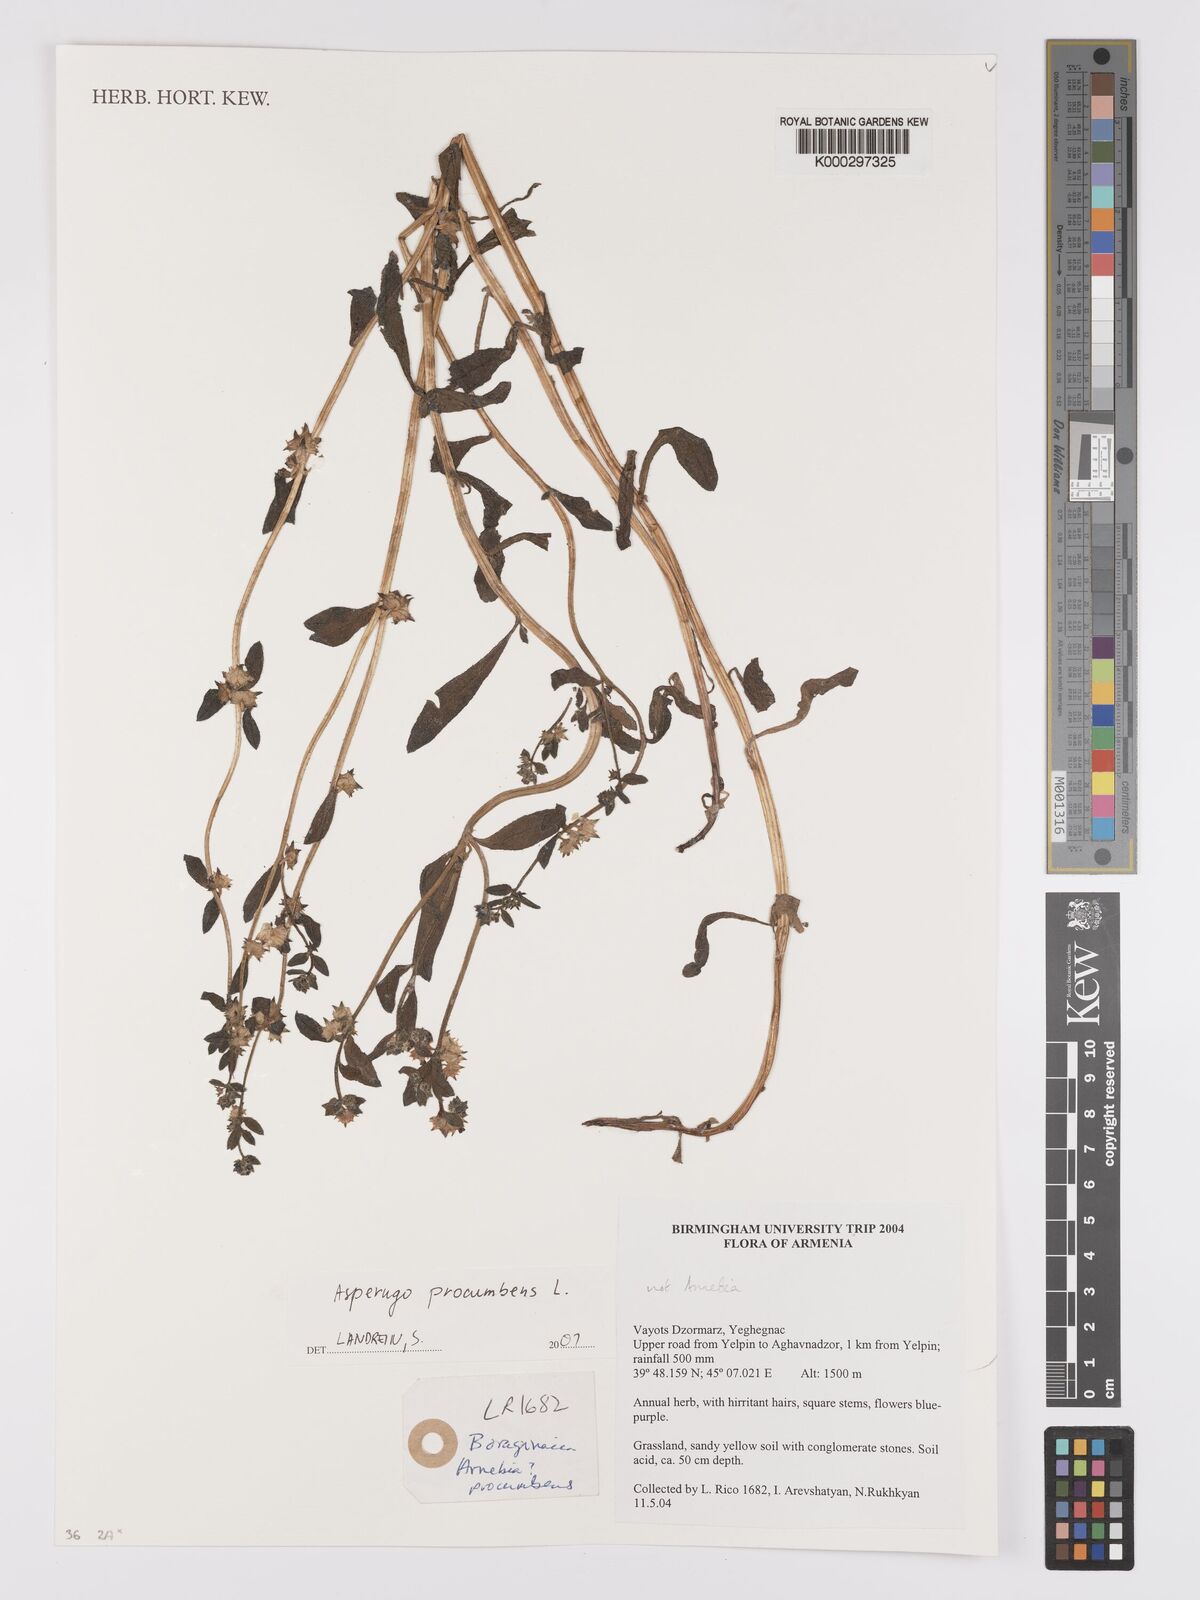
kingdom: Plantae
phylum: Tracheophyta
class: Magnoliopsida
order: Boraginales
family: Boraginaceae
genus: Asperugo
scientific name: Asperugo procumbens
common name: Madwort
